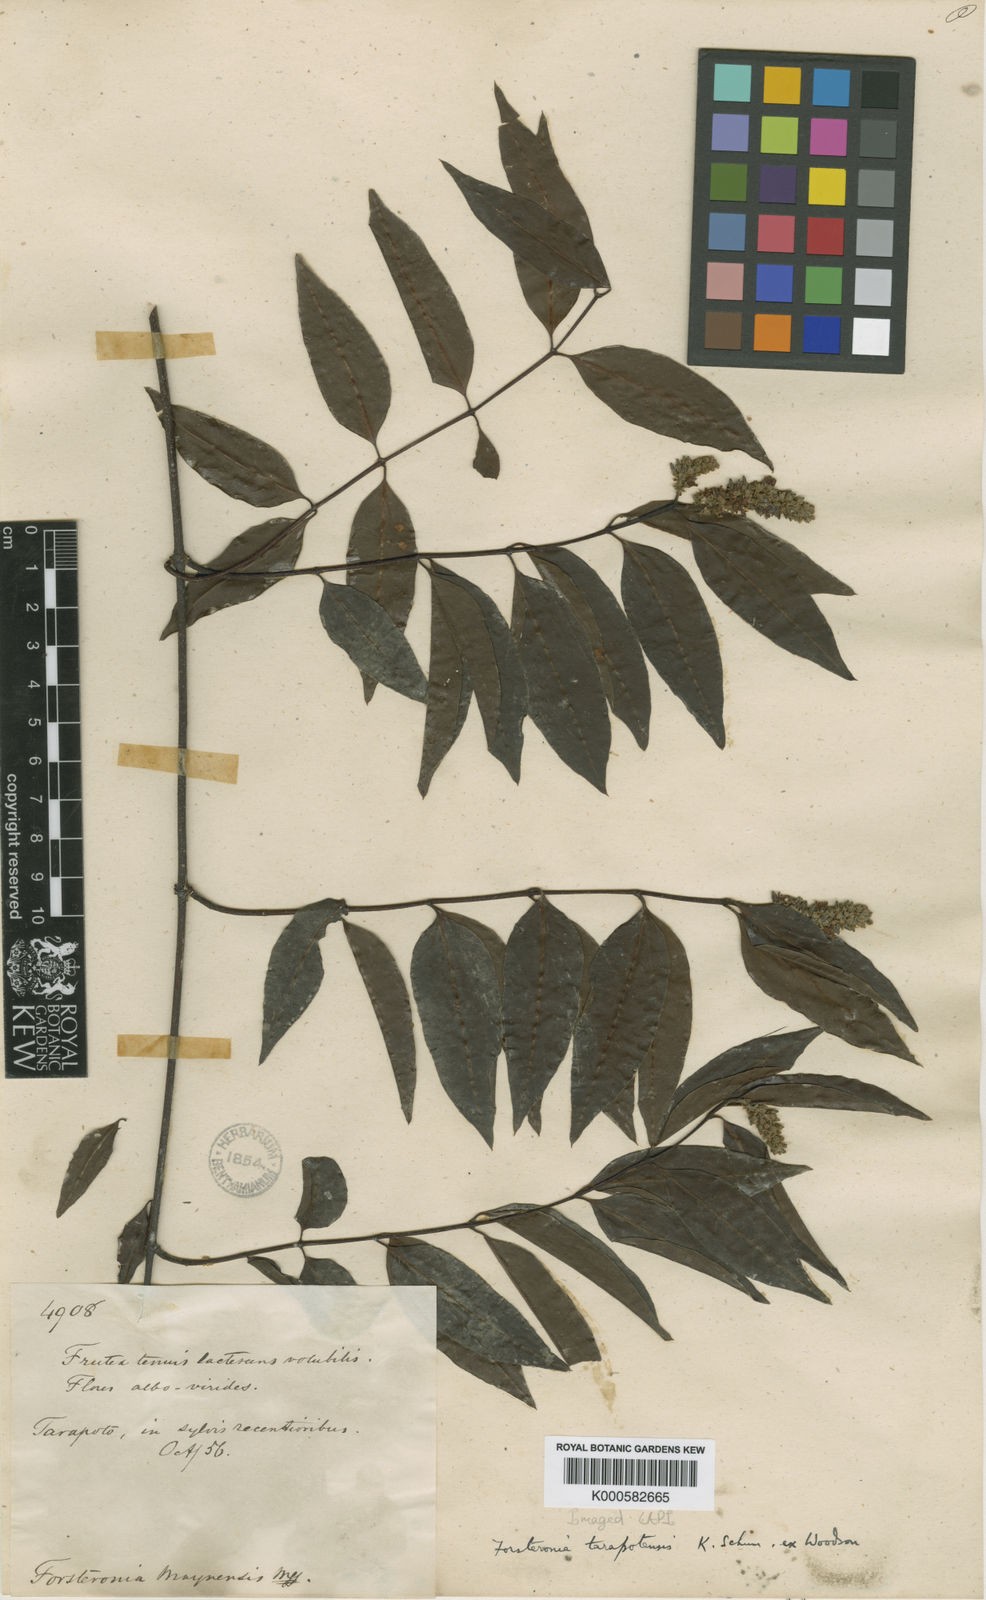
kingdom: Plantae
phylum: Tracheophyta
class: Magnoliopsida
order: Gentianales
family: Apocynaceae
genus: Forsteronia
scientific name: Forsteronia tarapotensis
